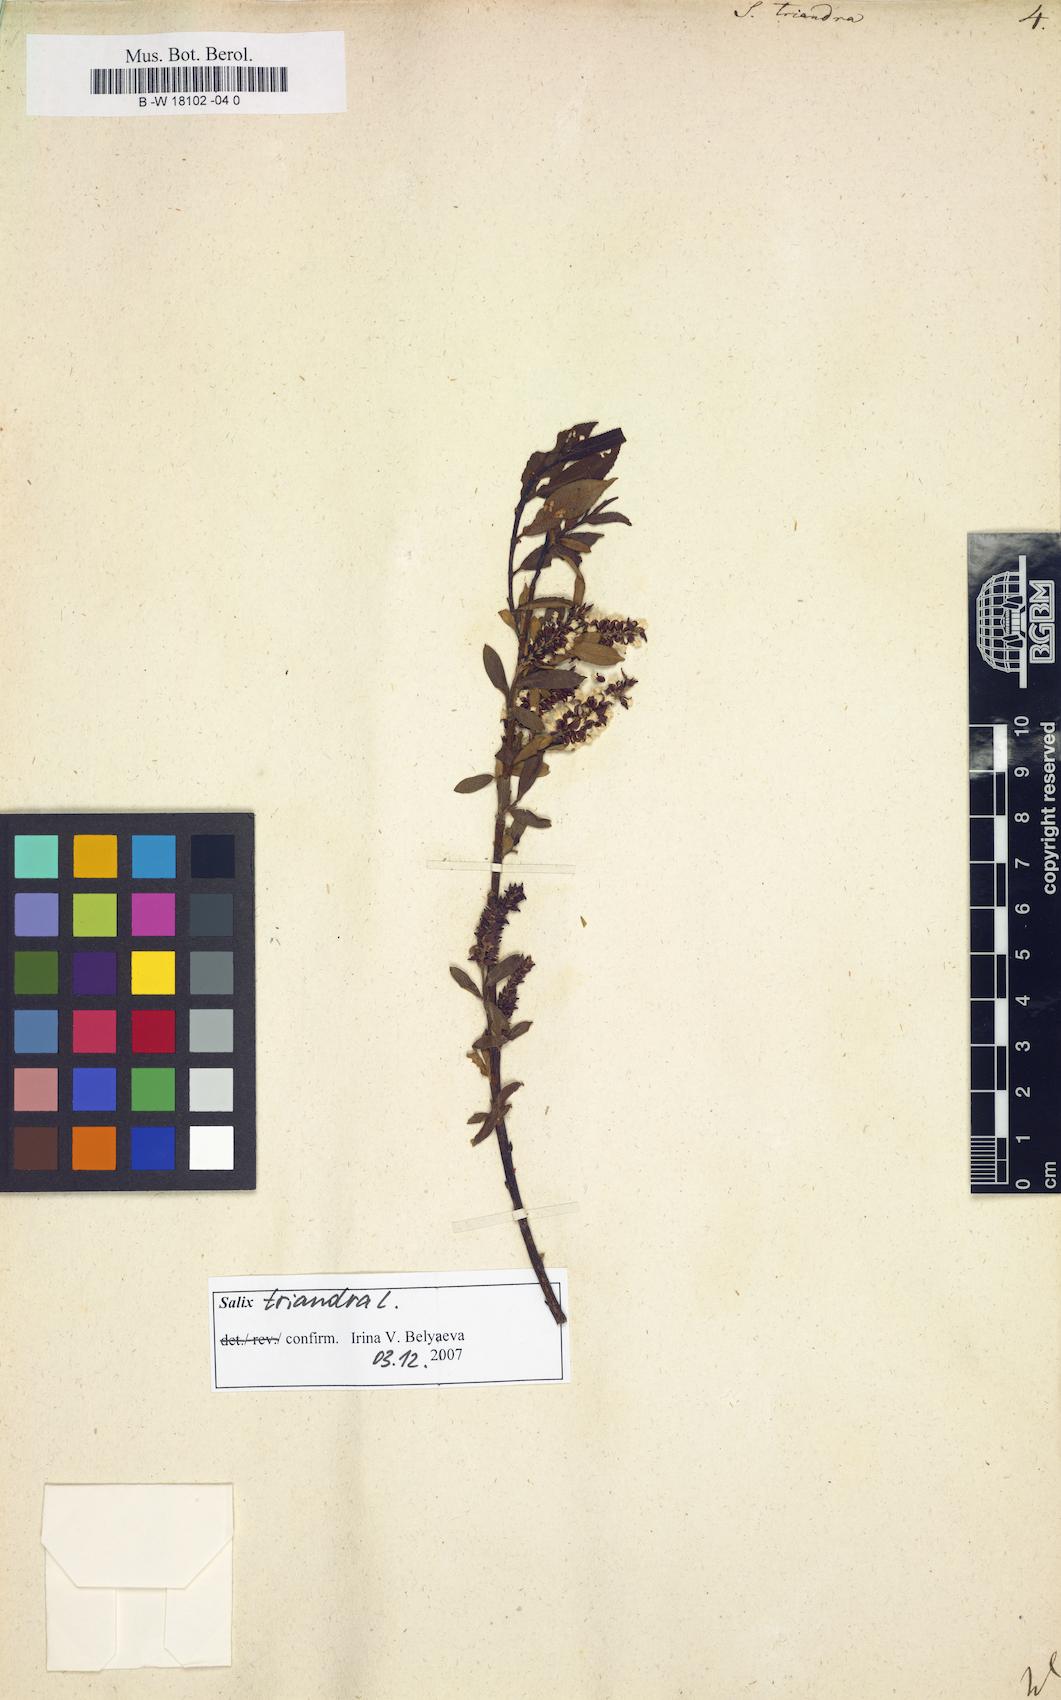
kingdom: Plantae
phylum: Tracheophyta
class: Magnoliopsida
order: Malpighiales
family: Salicaceae
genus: Salix
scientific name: Salix triandra
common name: Almond willow
